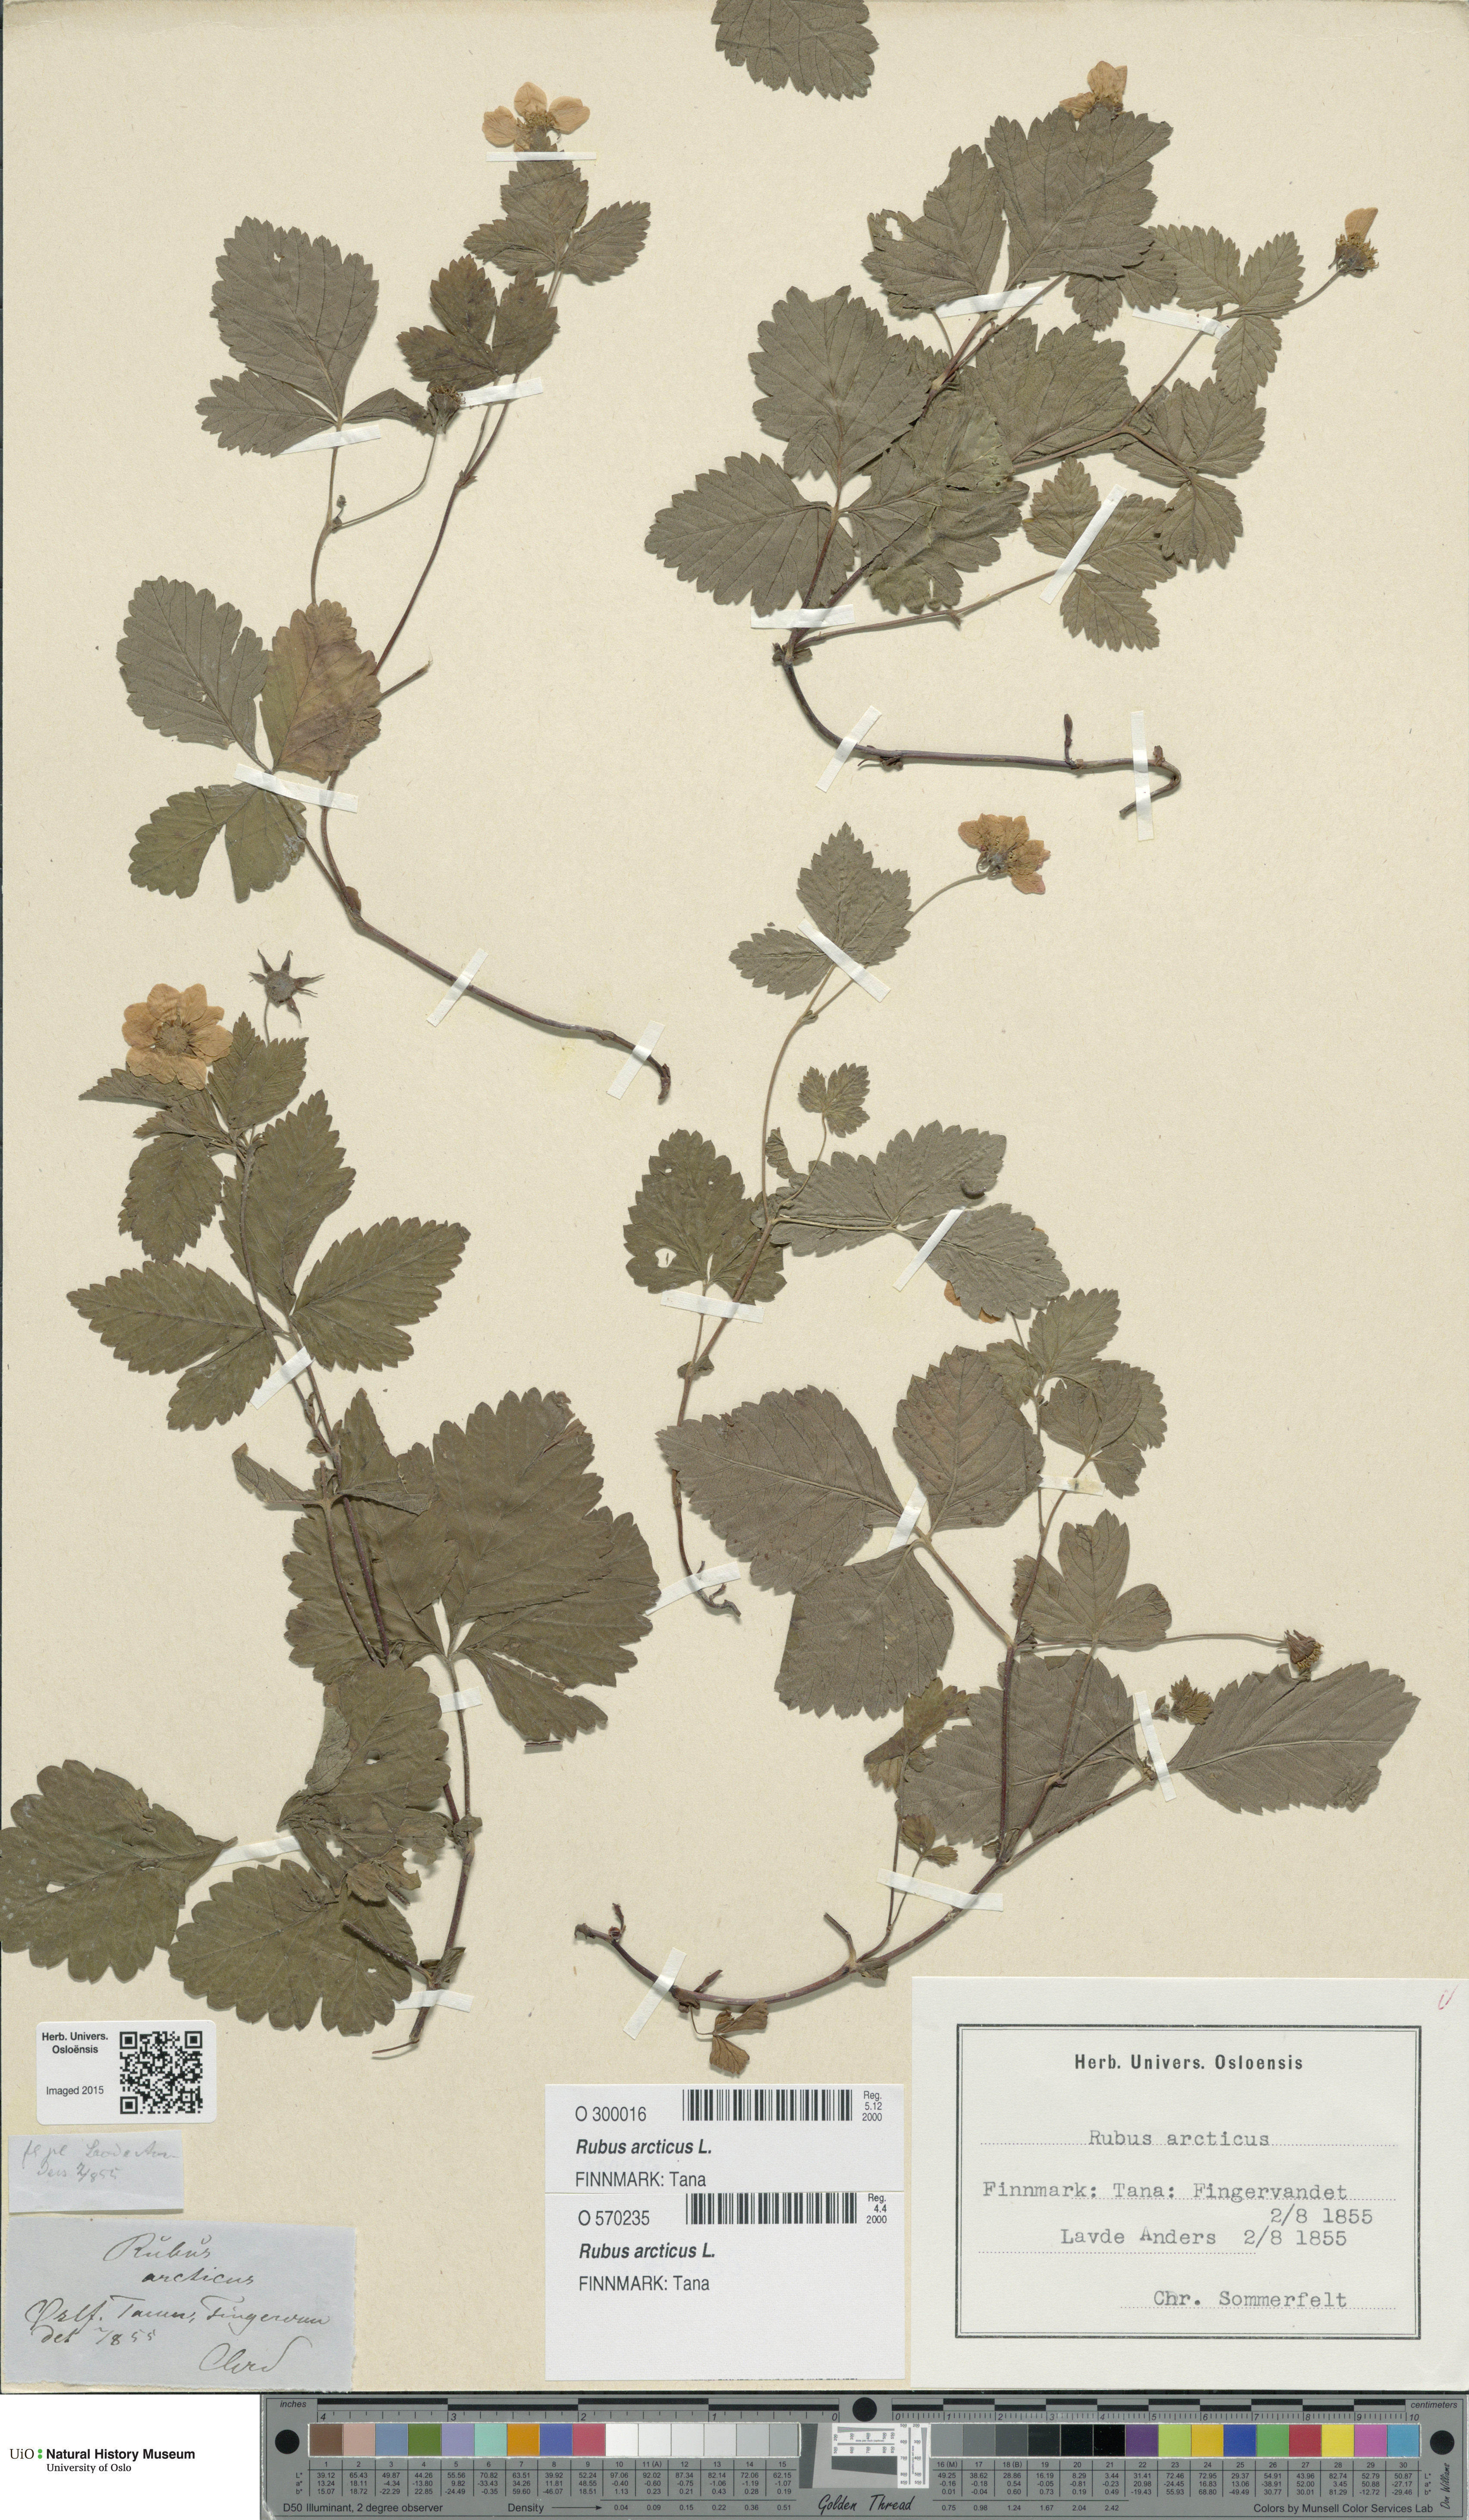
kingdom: Plantae
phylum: Tracheophyta
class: Magnoliopsida
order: Rosales
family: Rosaceae
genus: Rubus
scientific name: Rubus arcticus
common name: Arctic bramble
